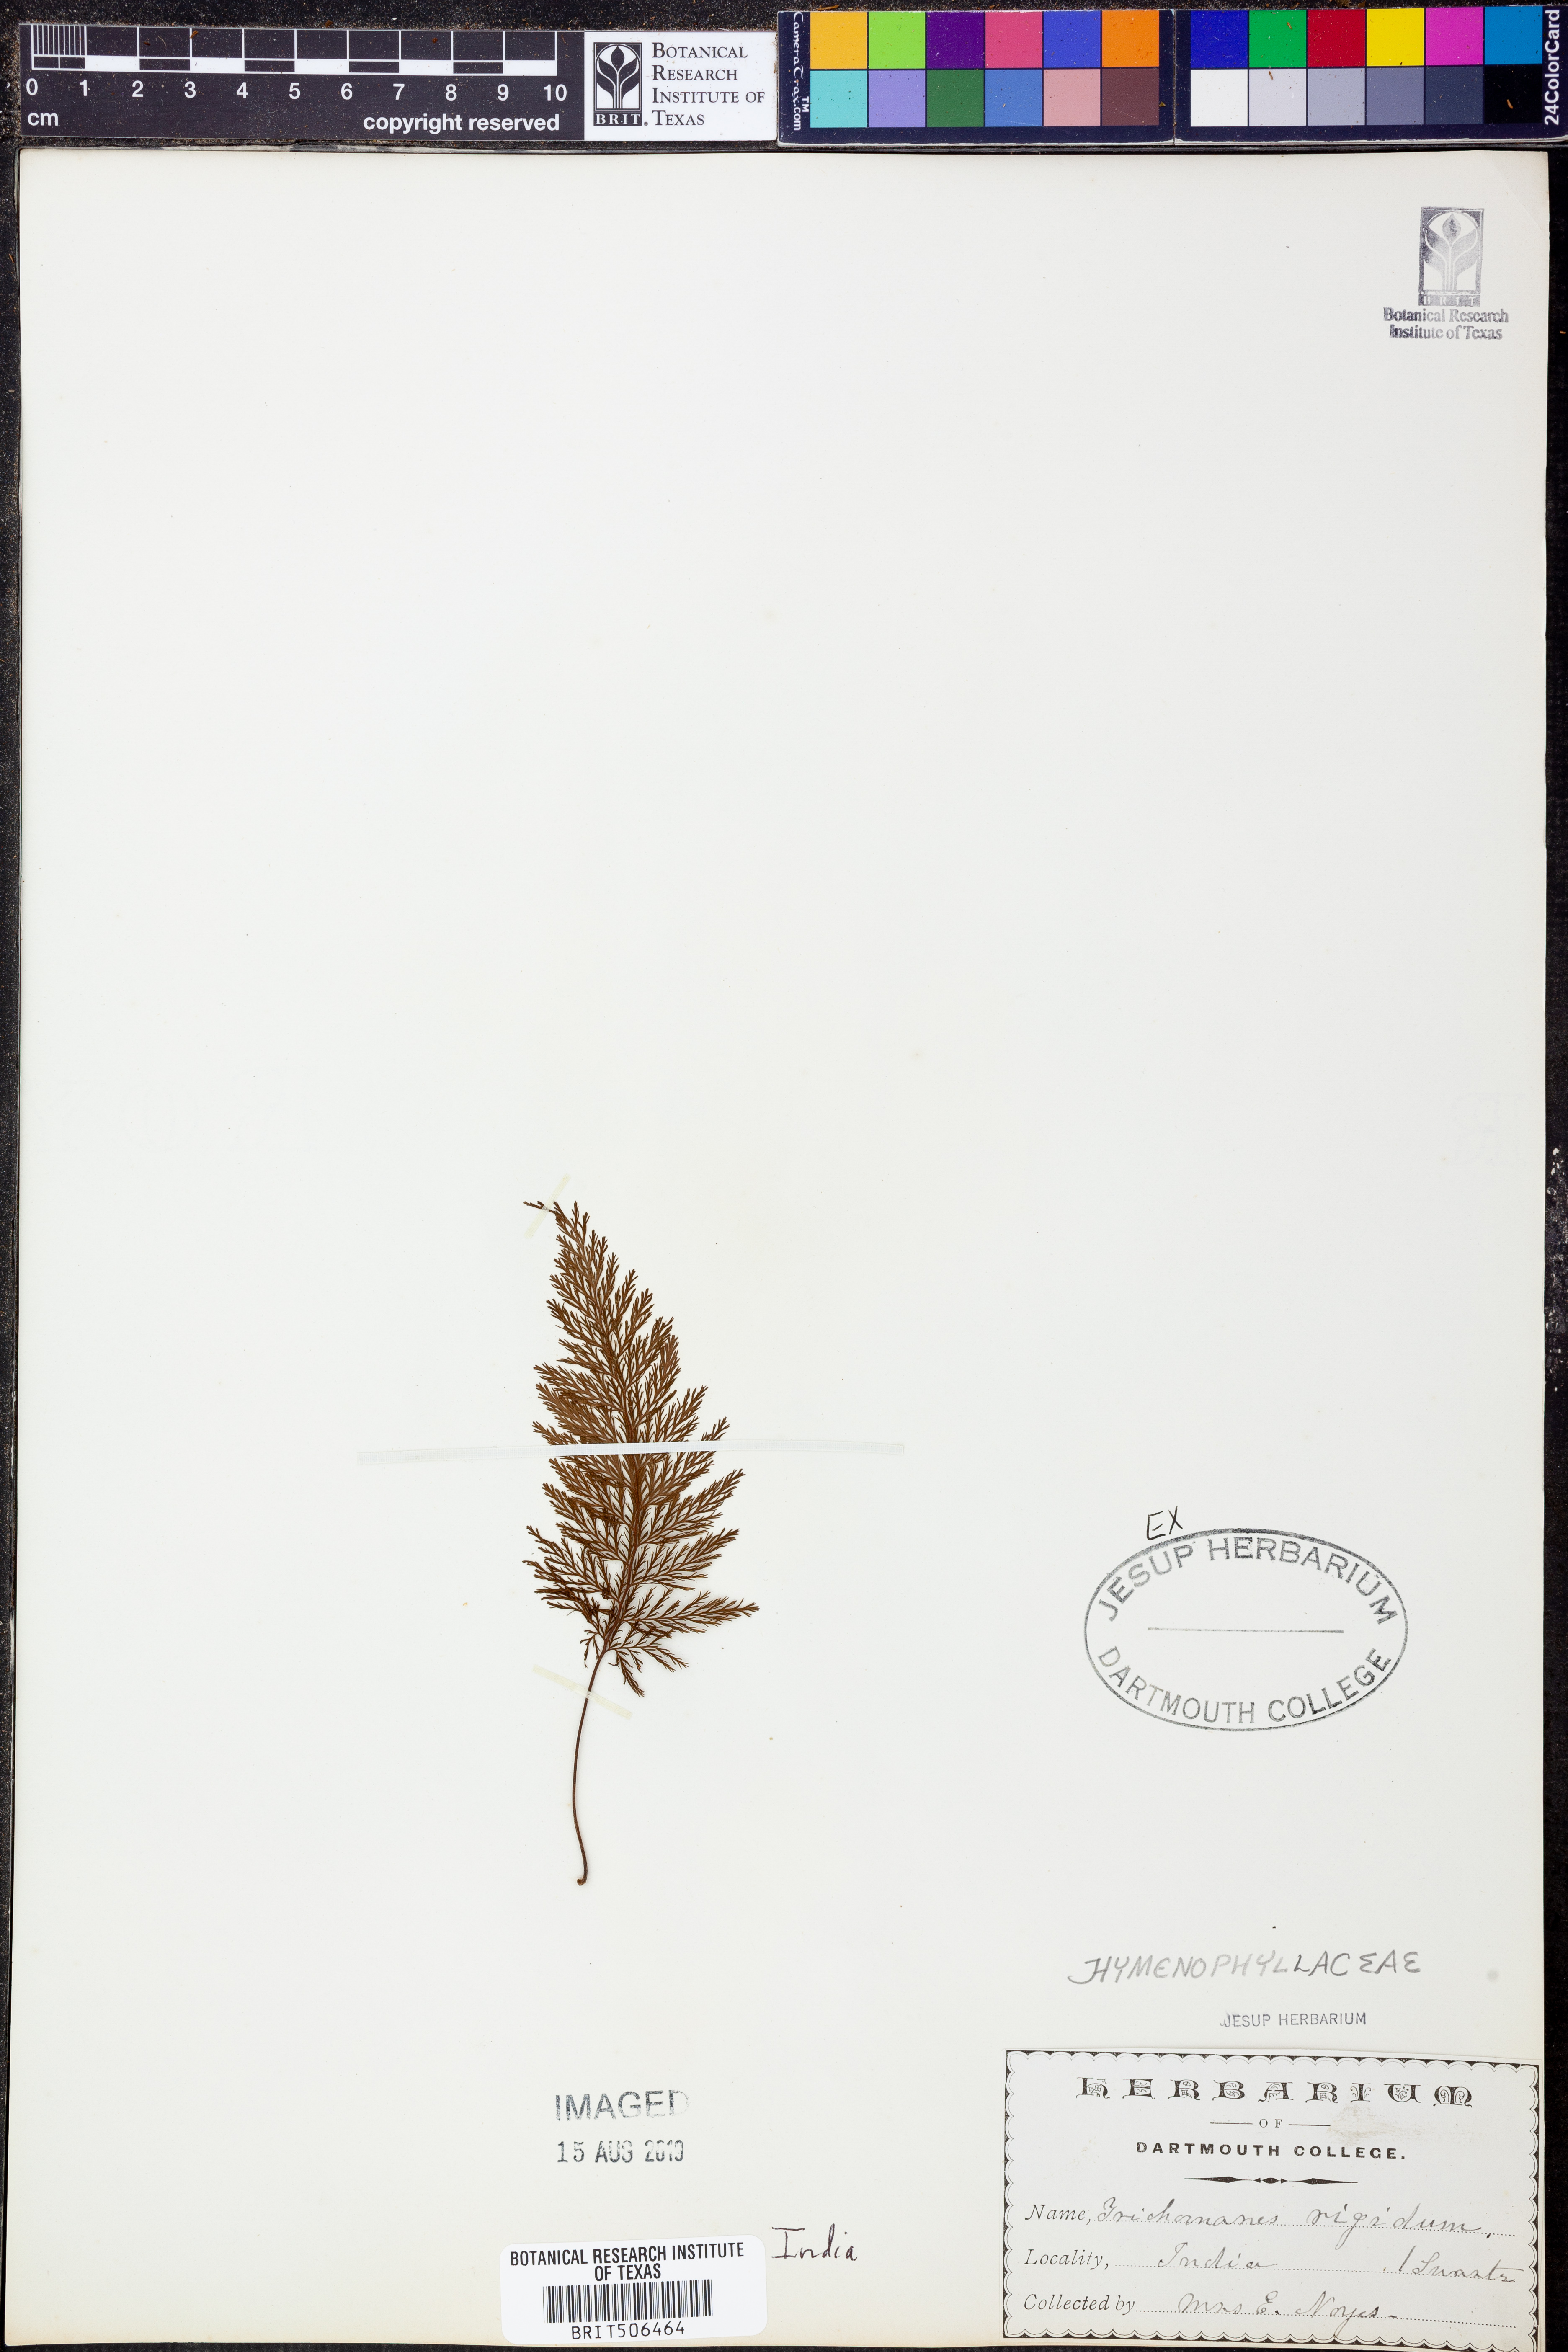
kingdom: Plantae
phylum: Tracheophyta
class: Polypodiopsida
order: Hymenophyllales
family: Hymenophyllaceae
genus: Abrodictyum
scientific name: Abrodictyum rigidum
